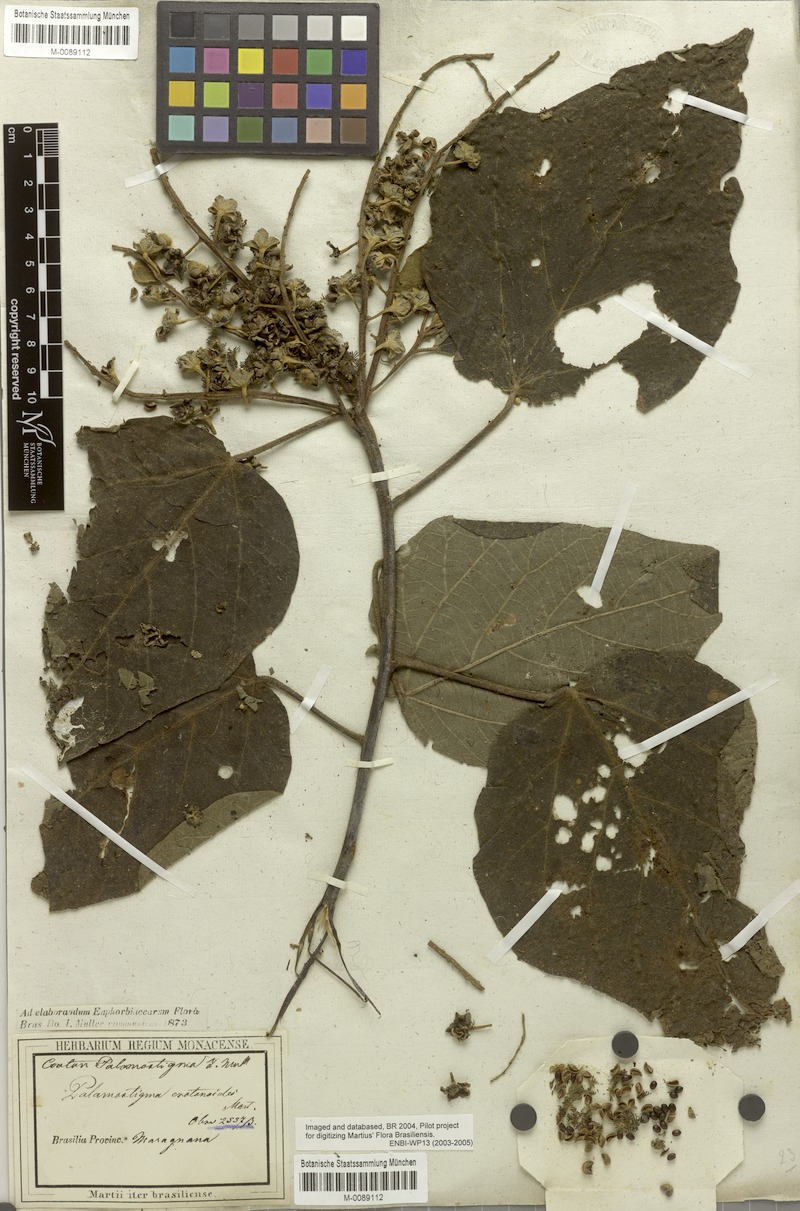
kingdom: Plantae
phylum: Tracheophyta
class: Magnoliopsida
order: Malpighiales
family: Euphorbiaceae
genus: Croton
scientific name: Croton palanostigma
